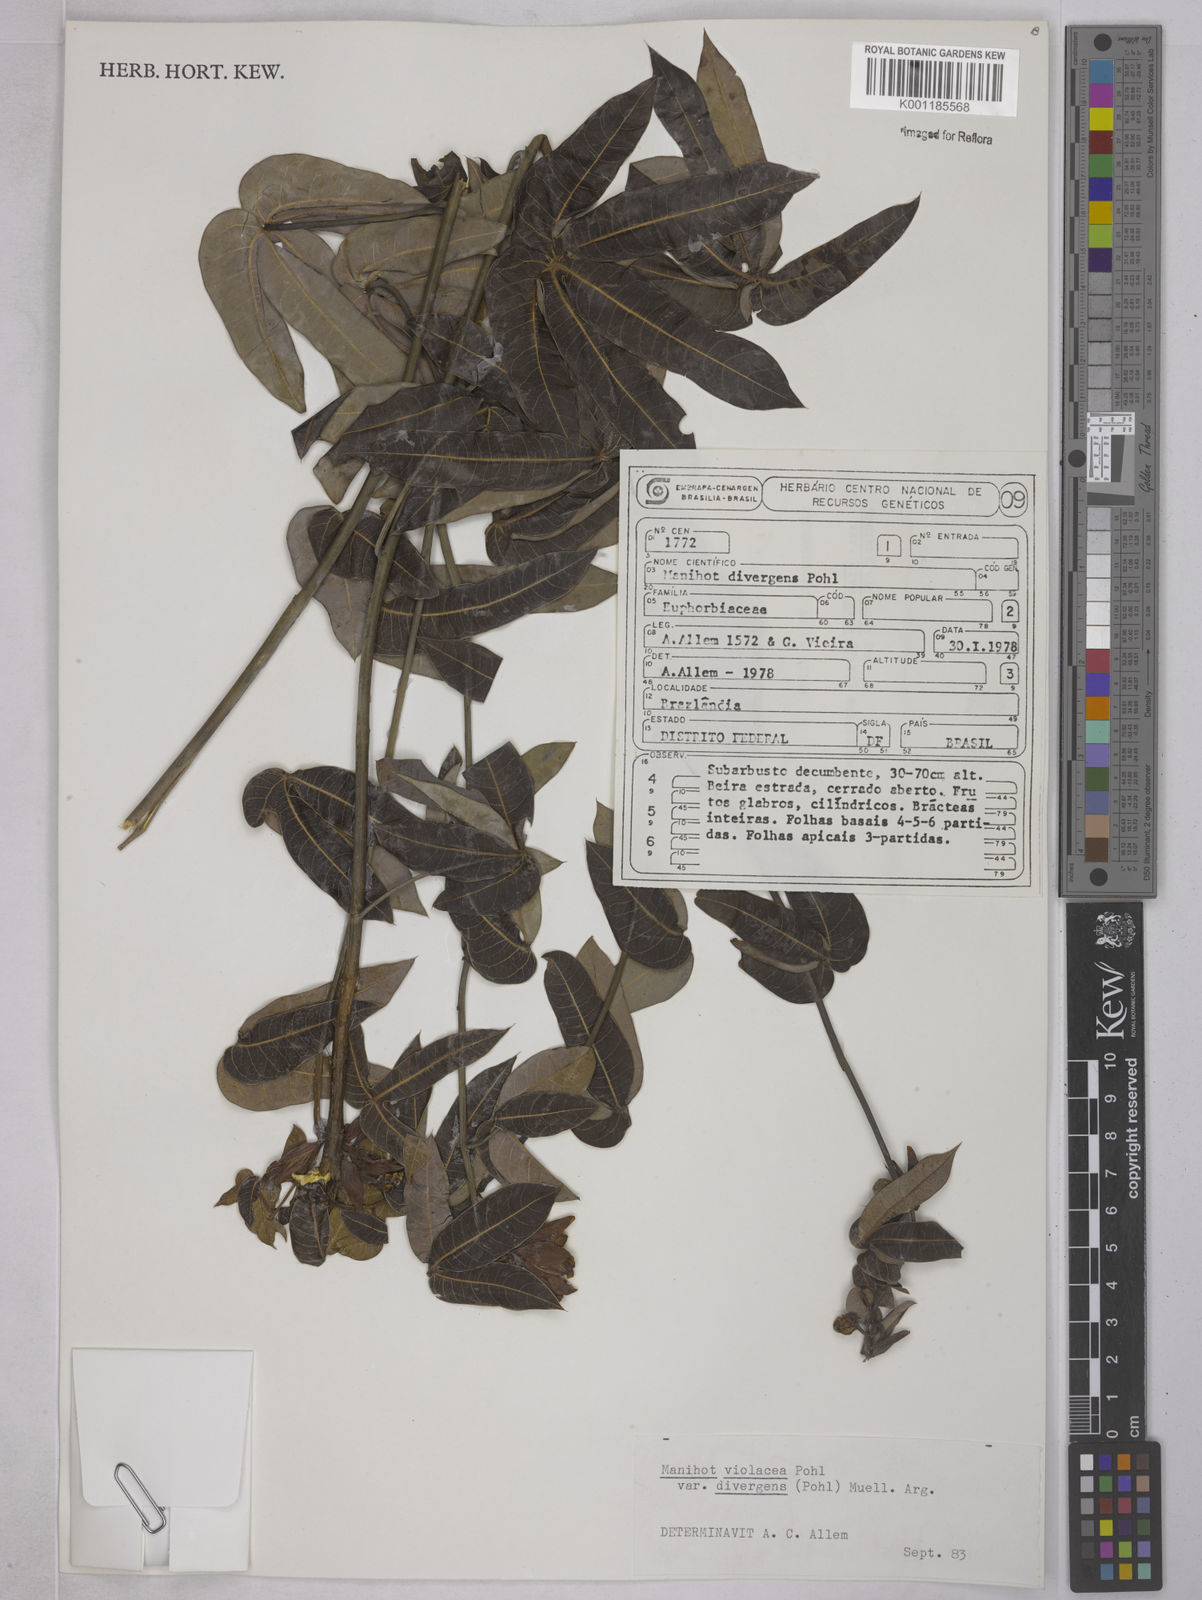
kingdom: Plantae
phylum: Tracheophyta
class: Magnoliopsida
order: Malpighiales
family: Euphorbiaceae
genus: Manihot
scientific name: Manihot divergens
